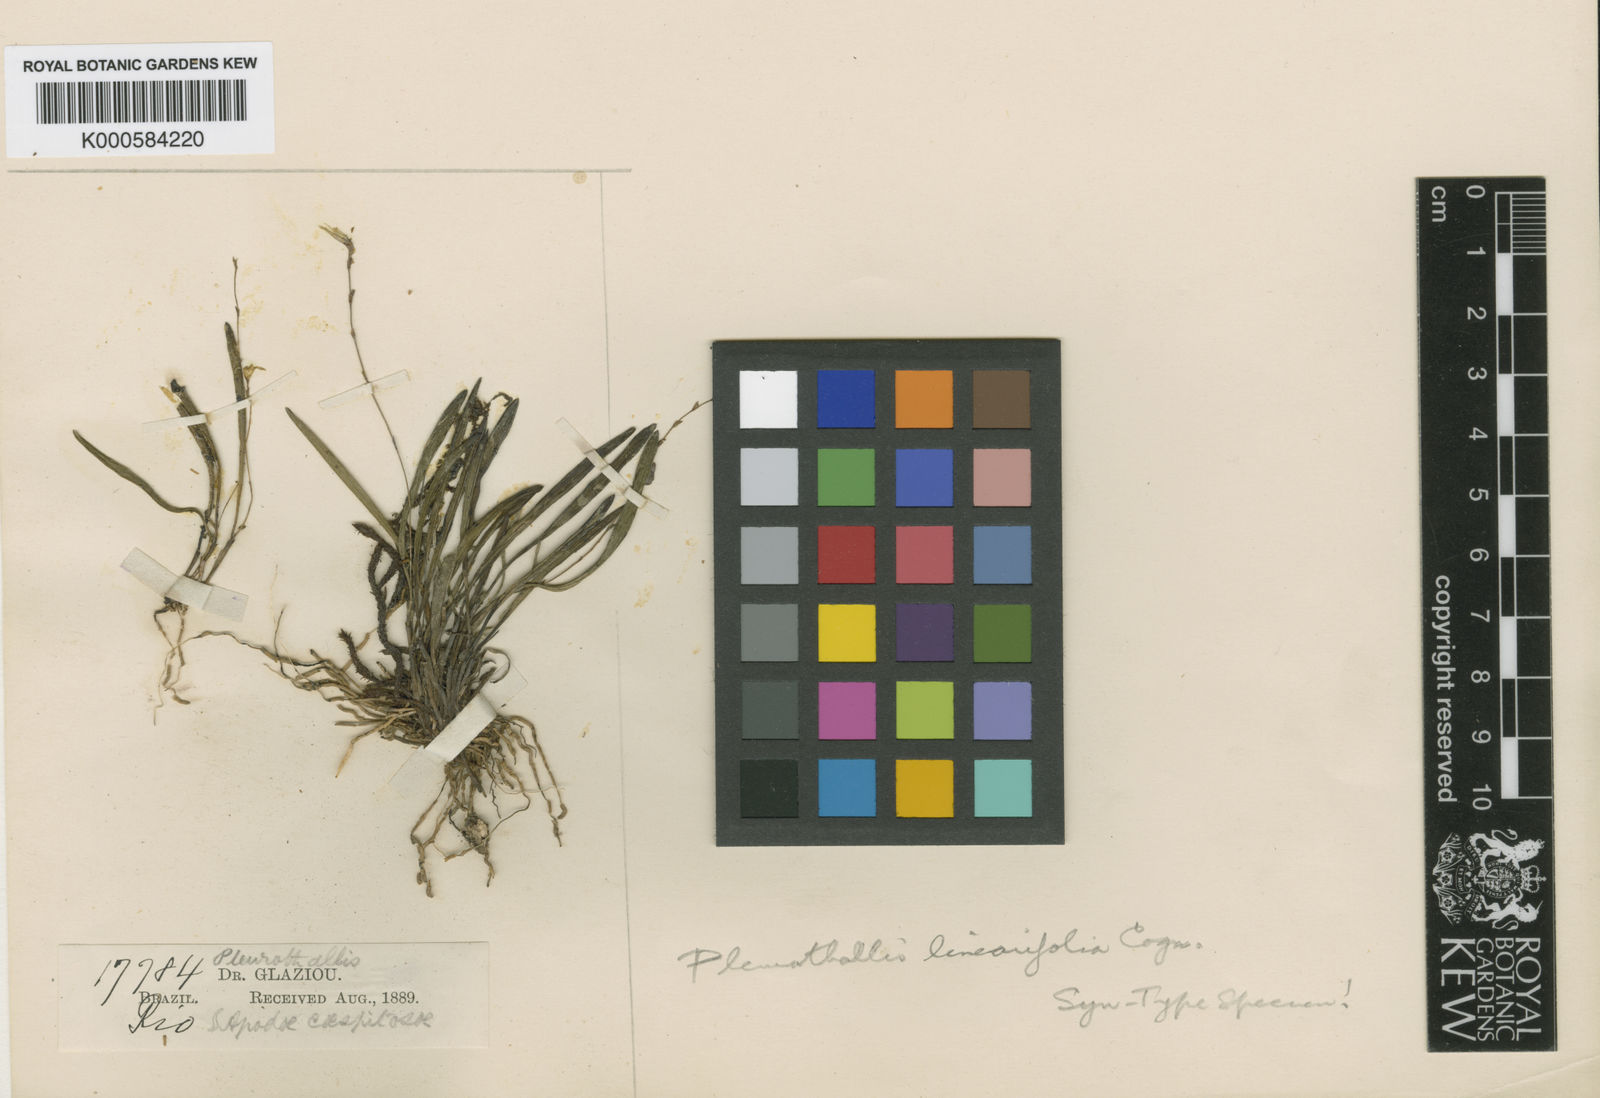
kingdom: Plantae
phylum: Tracheophyta
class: Liliopsida
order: Asparagales
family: Orchidaceae
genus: Anathallis
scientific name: Anathallis linearifolia
